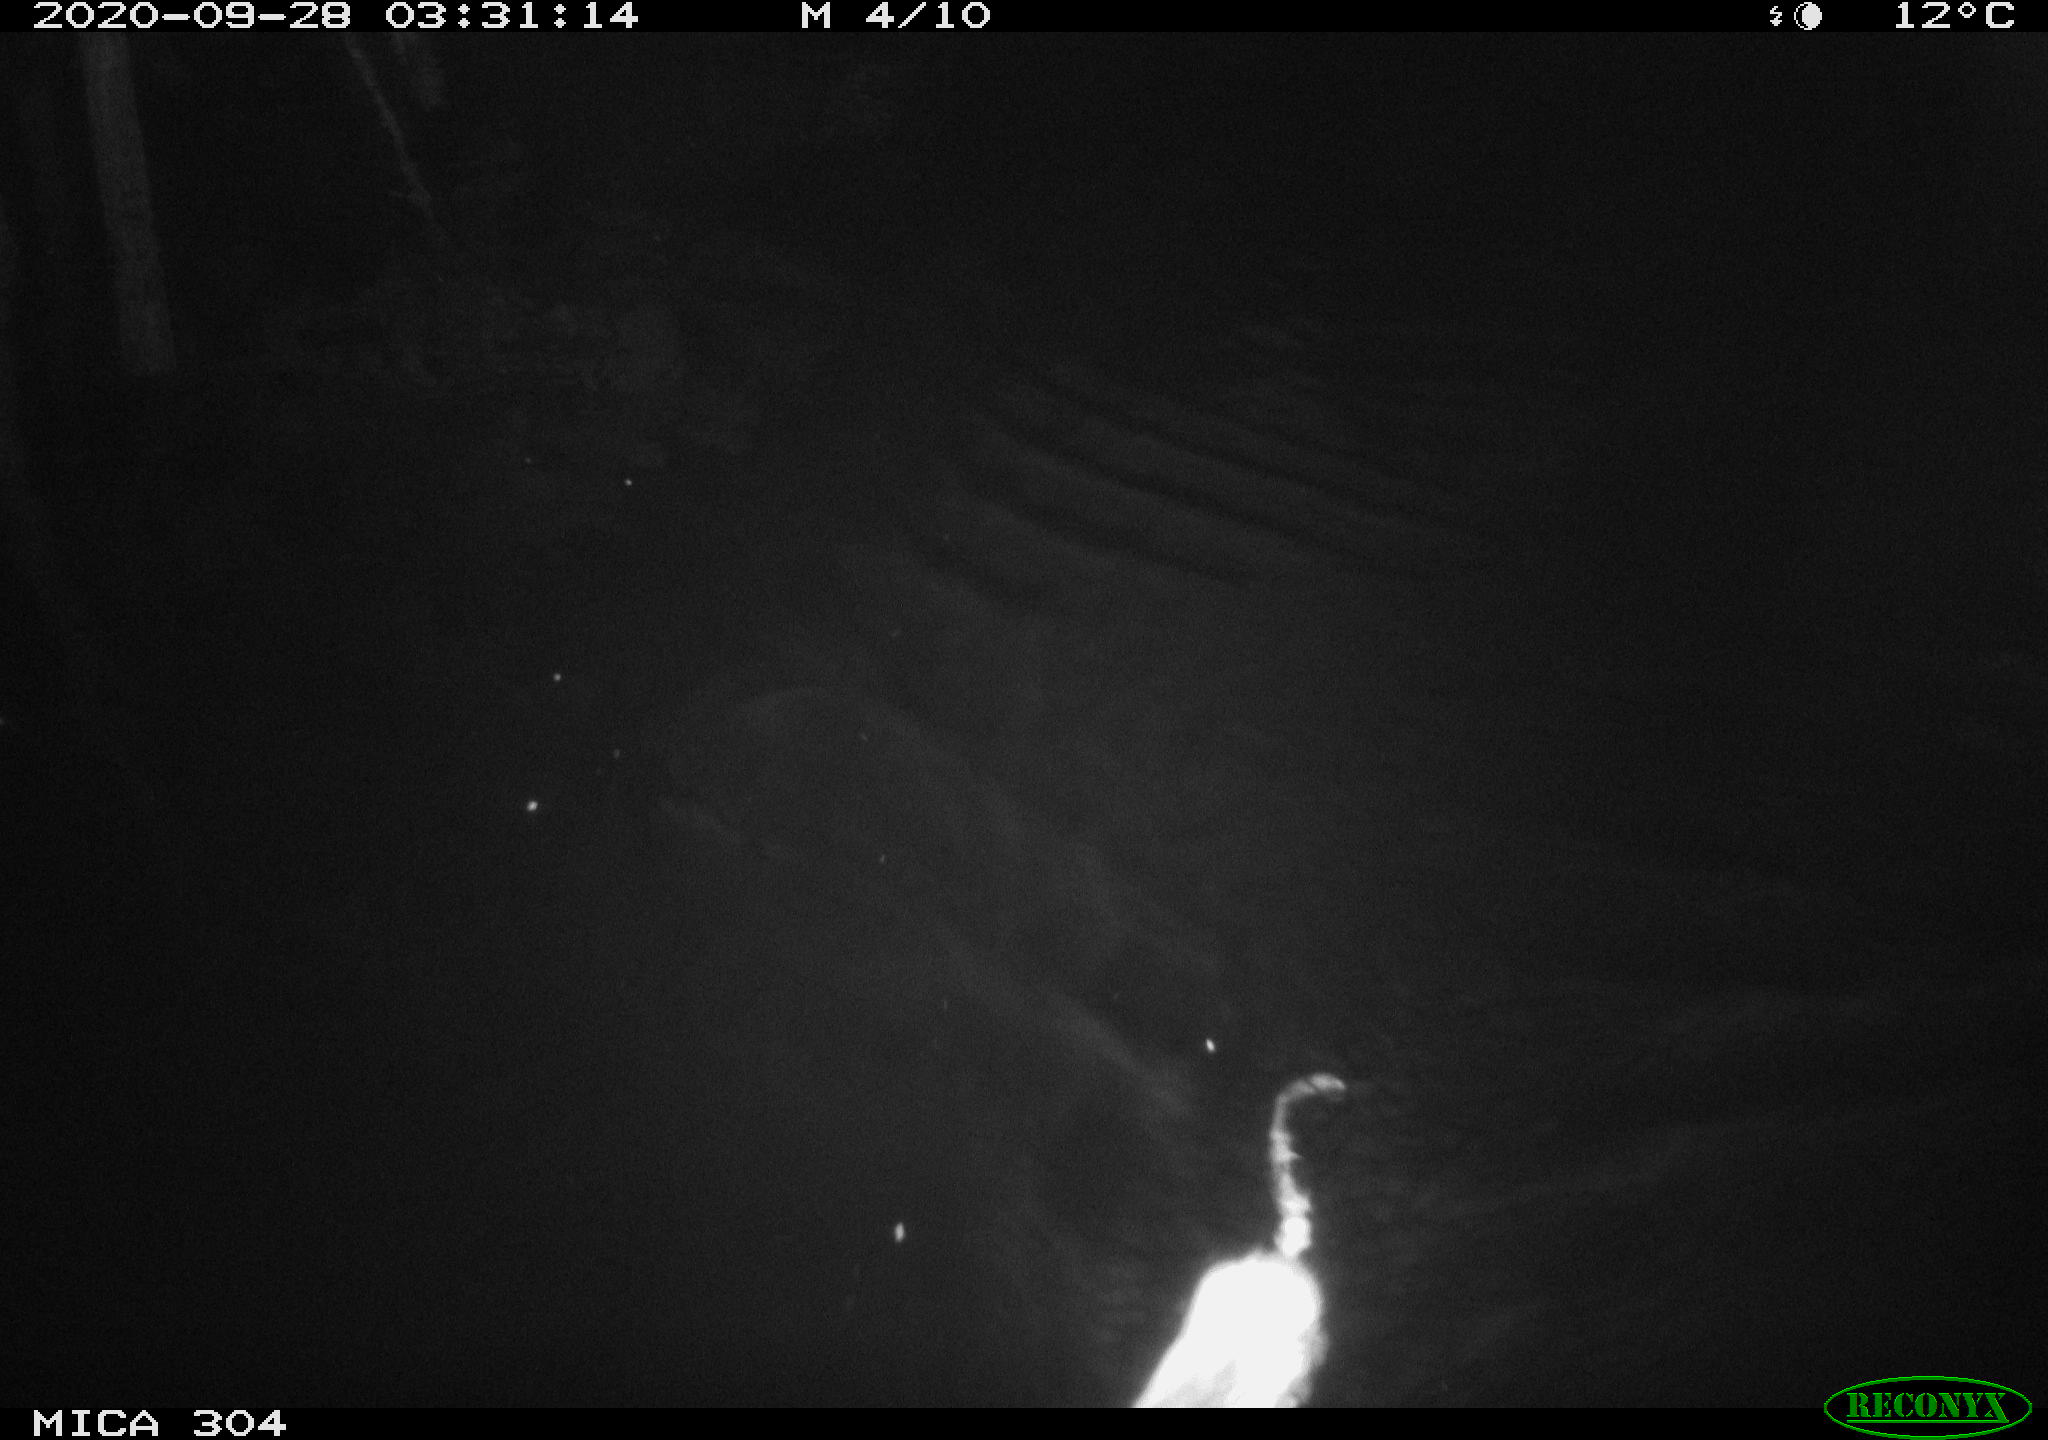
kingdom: Animalia
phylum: Chordata
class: Mammalia
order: Rodentia
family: Cricetidae
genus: Ondatra
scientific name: Ondatra zibethicus
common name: Muskrat
